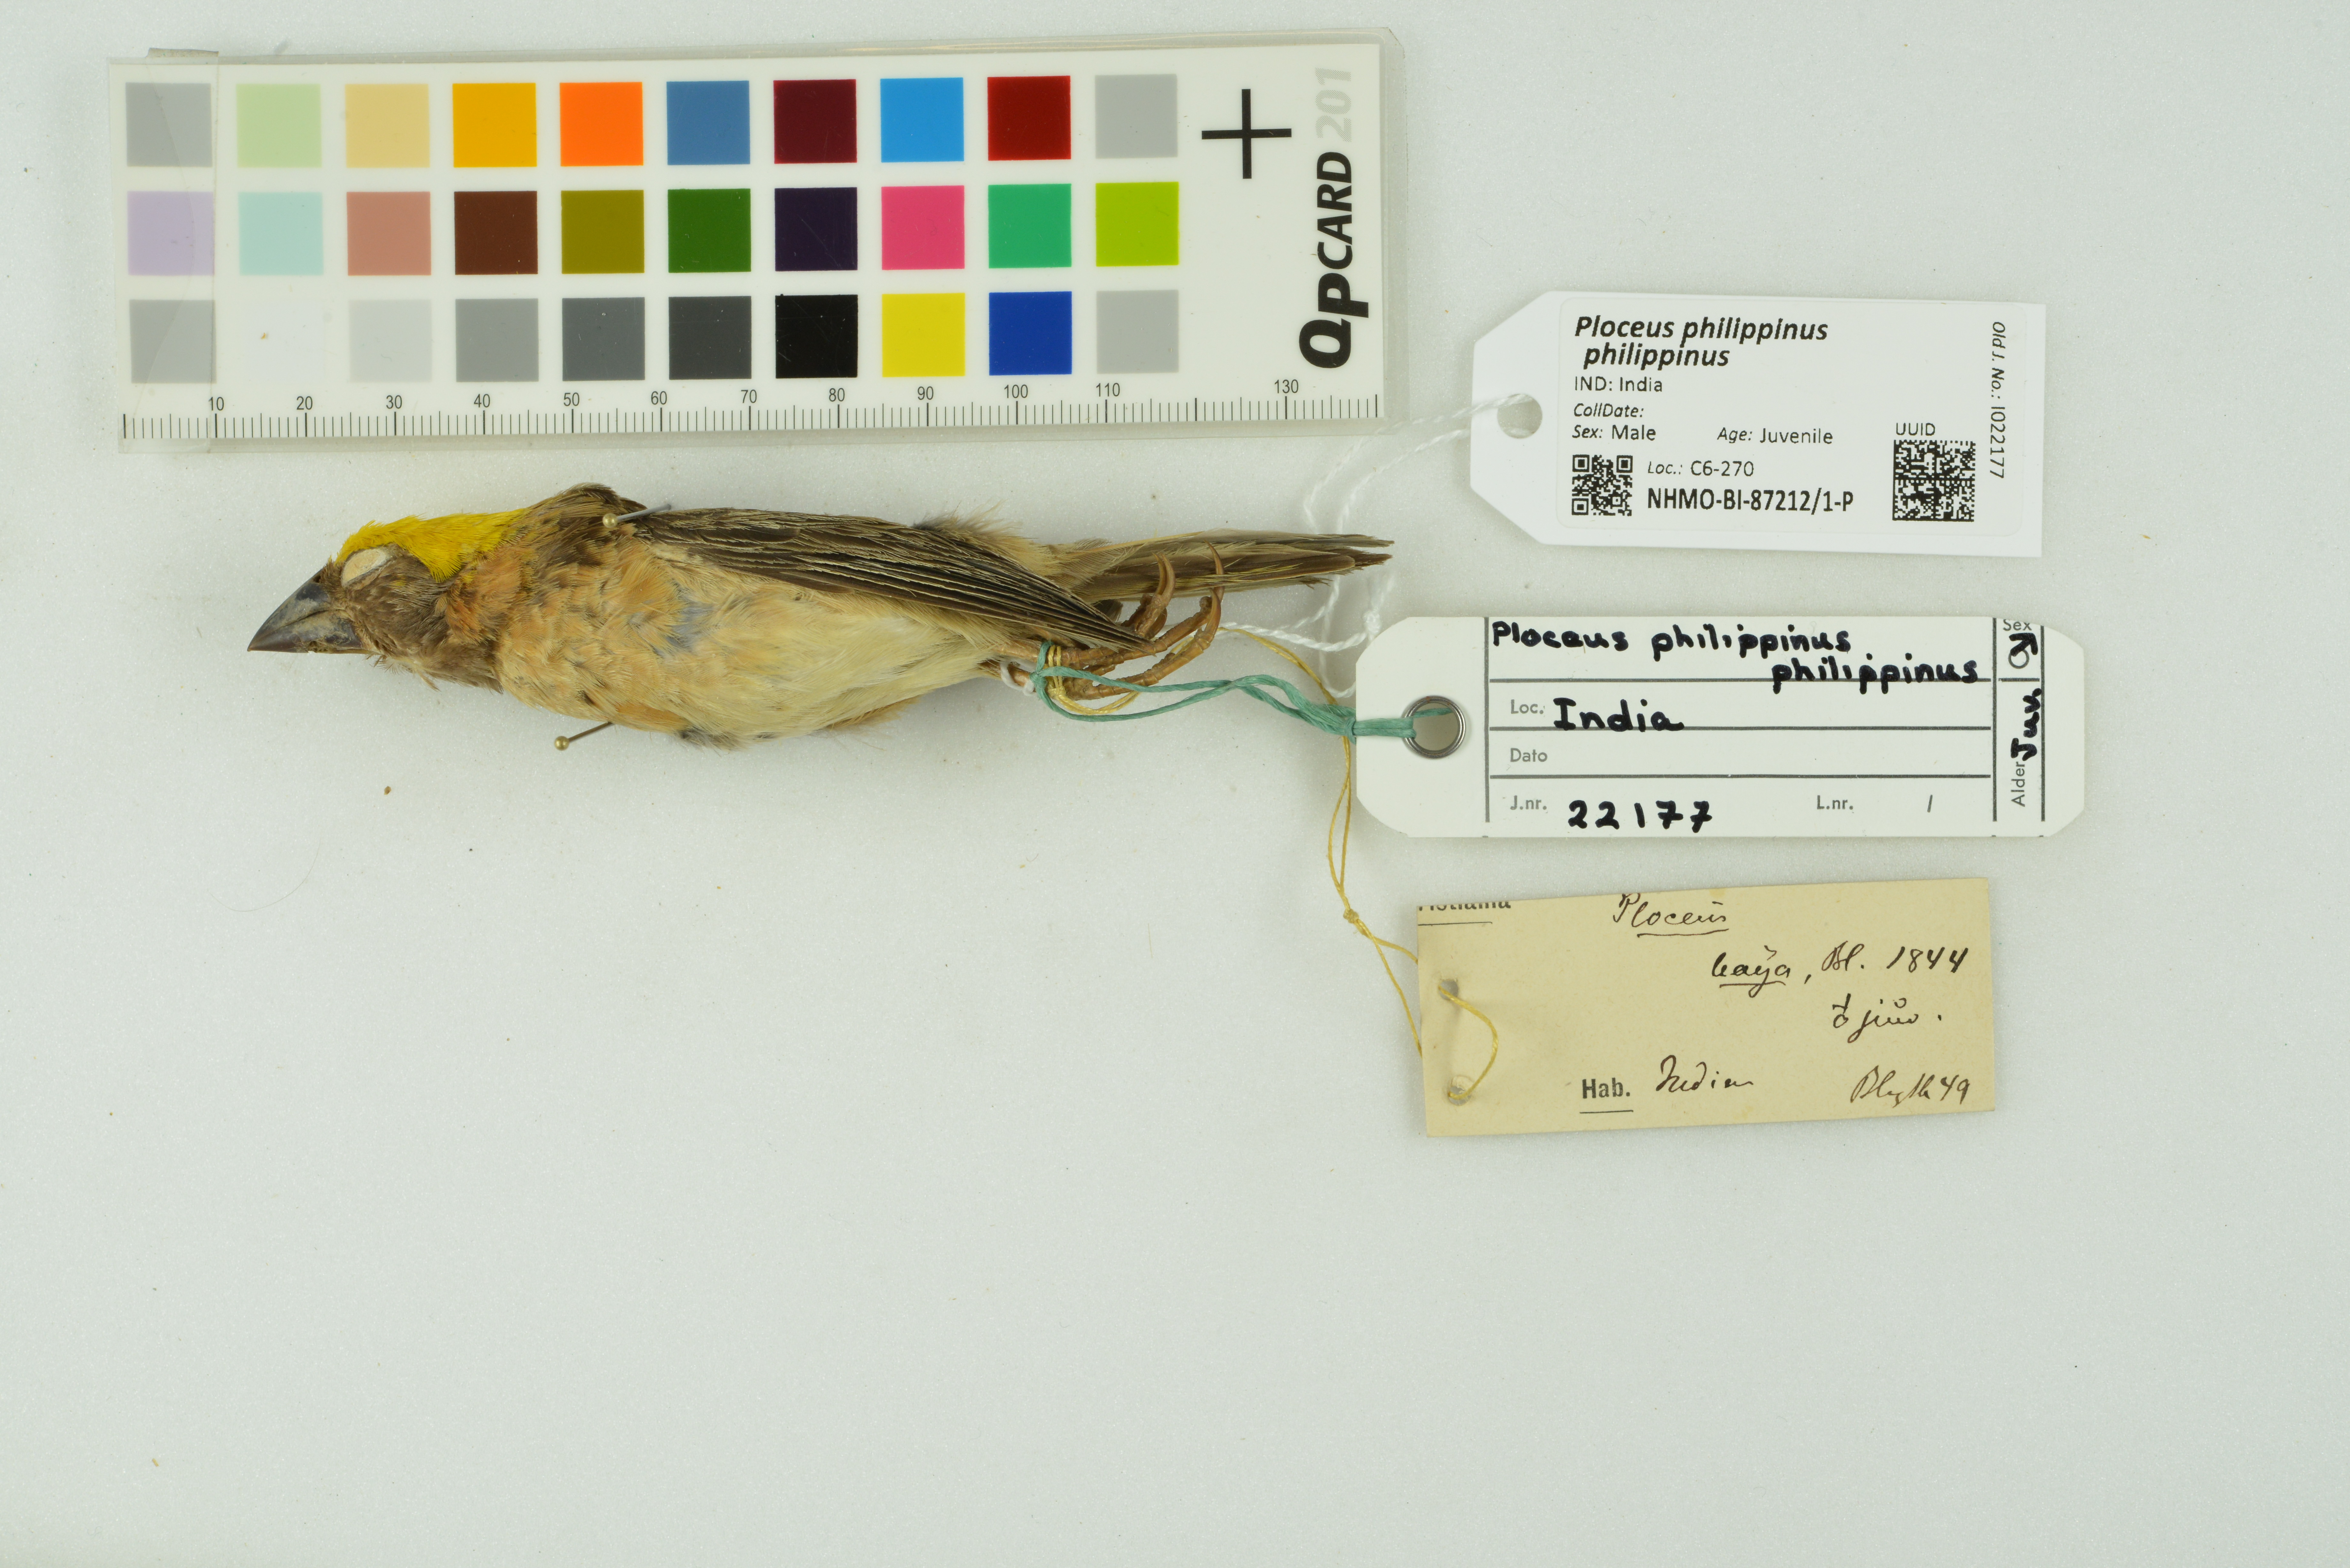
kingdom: Animalia
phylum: Chordata
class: Aves
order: Passeriformes
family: Ploceidae
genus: Ploceus
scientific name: Ploceus philippinus
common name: Baya weaver
